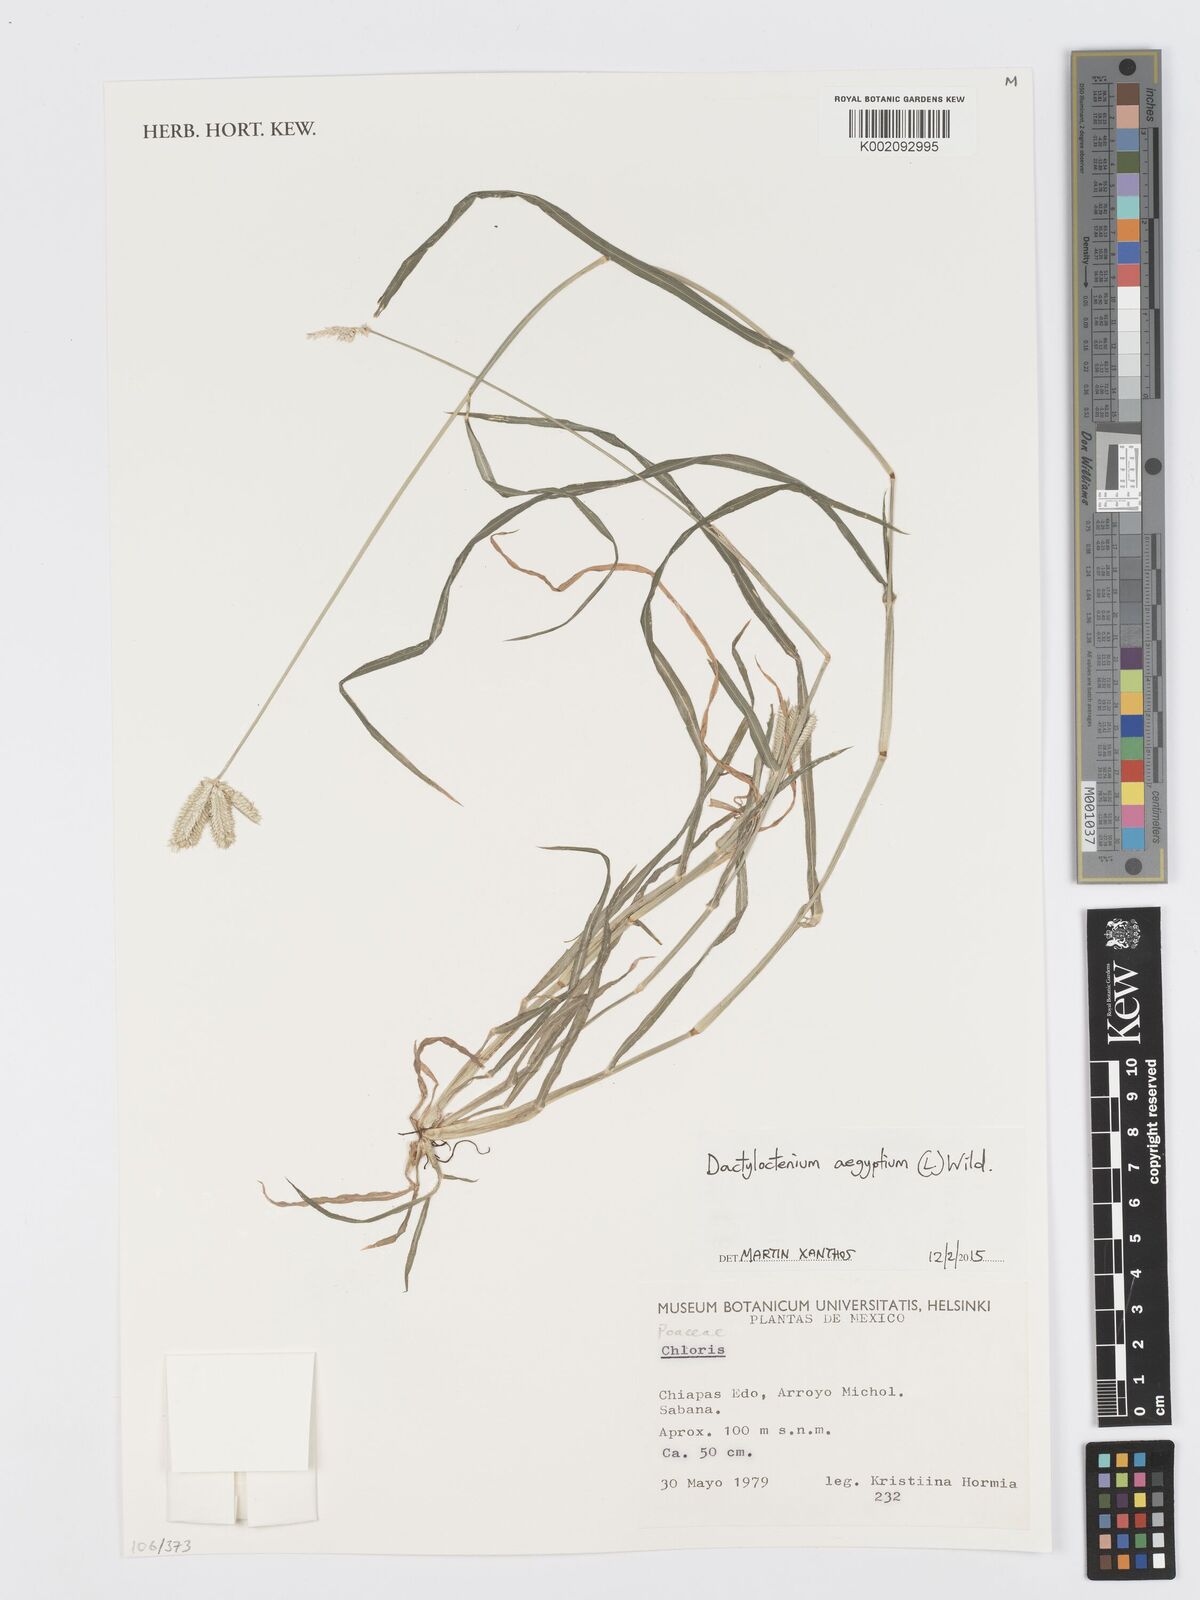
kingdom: Plantae
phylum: Tracheophyta
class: Liliopsida
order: Poales
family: Poaceae
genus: Dactyloctenium
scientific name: Dactyloctenium aegyptium
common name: Egyptian grass
